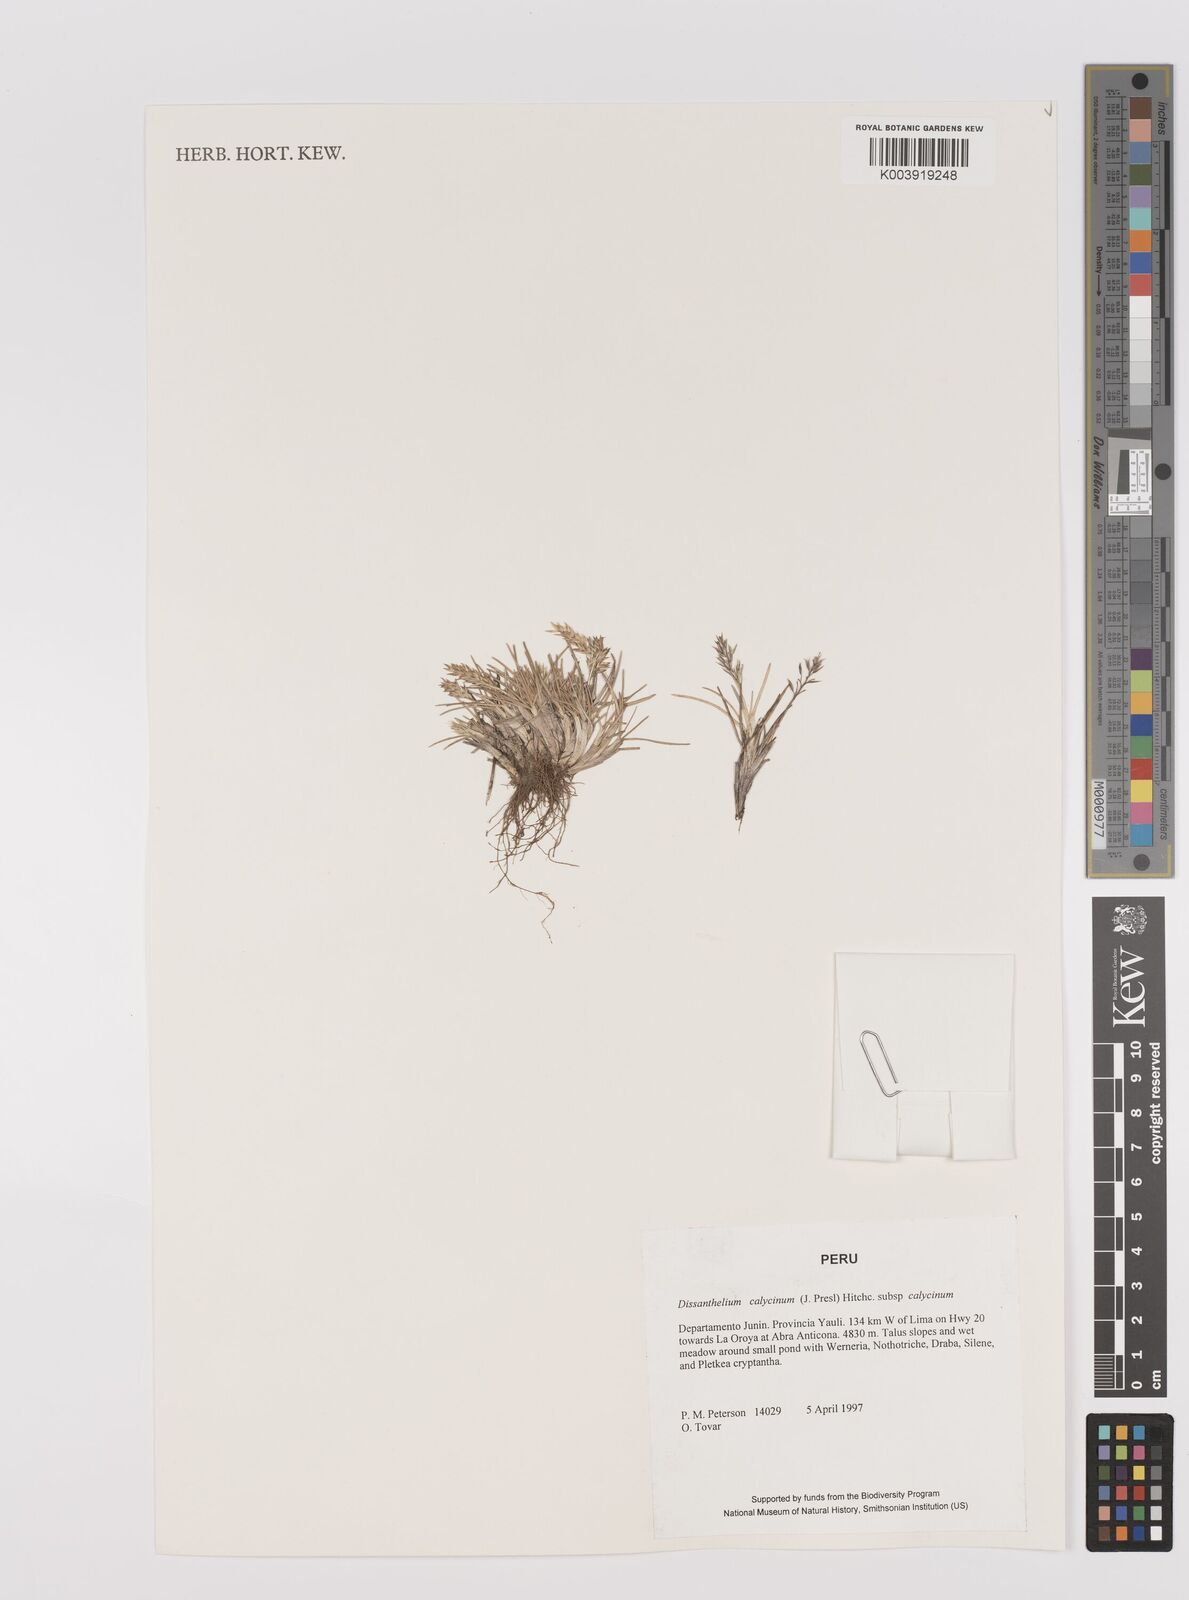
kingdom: Plantae
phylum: Tracheophyta
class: Liliopsida
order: Poales
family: Poaceae
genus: Poa
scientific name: Poa calycina
